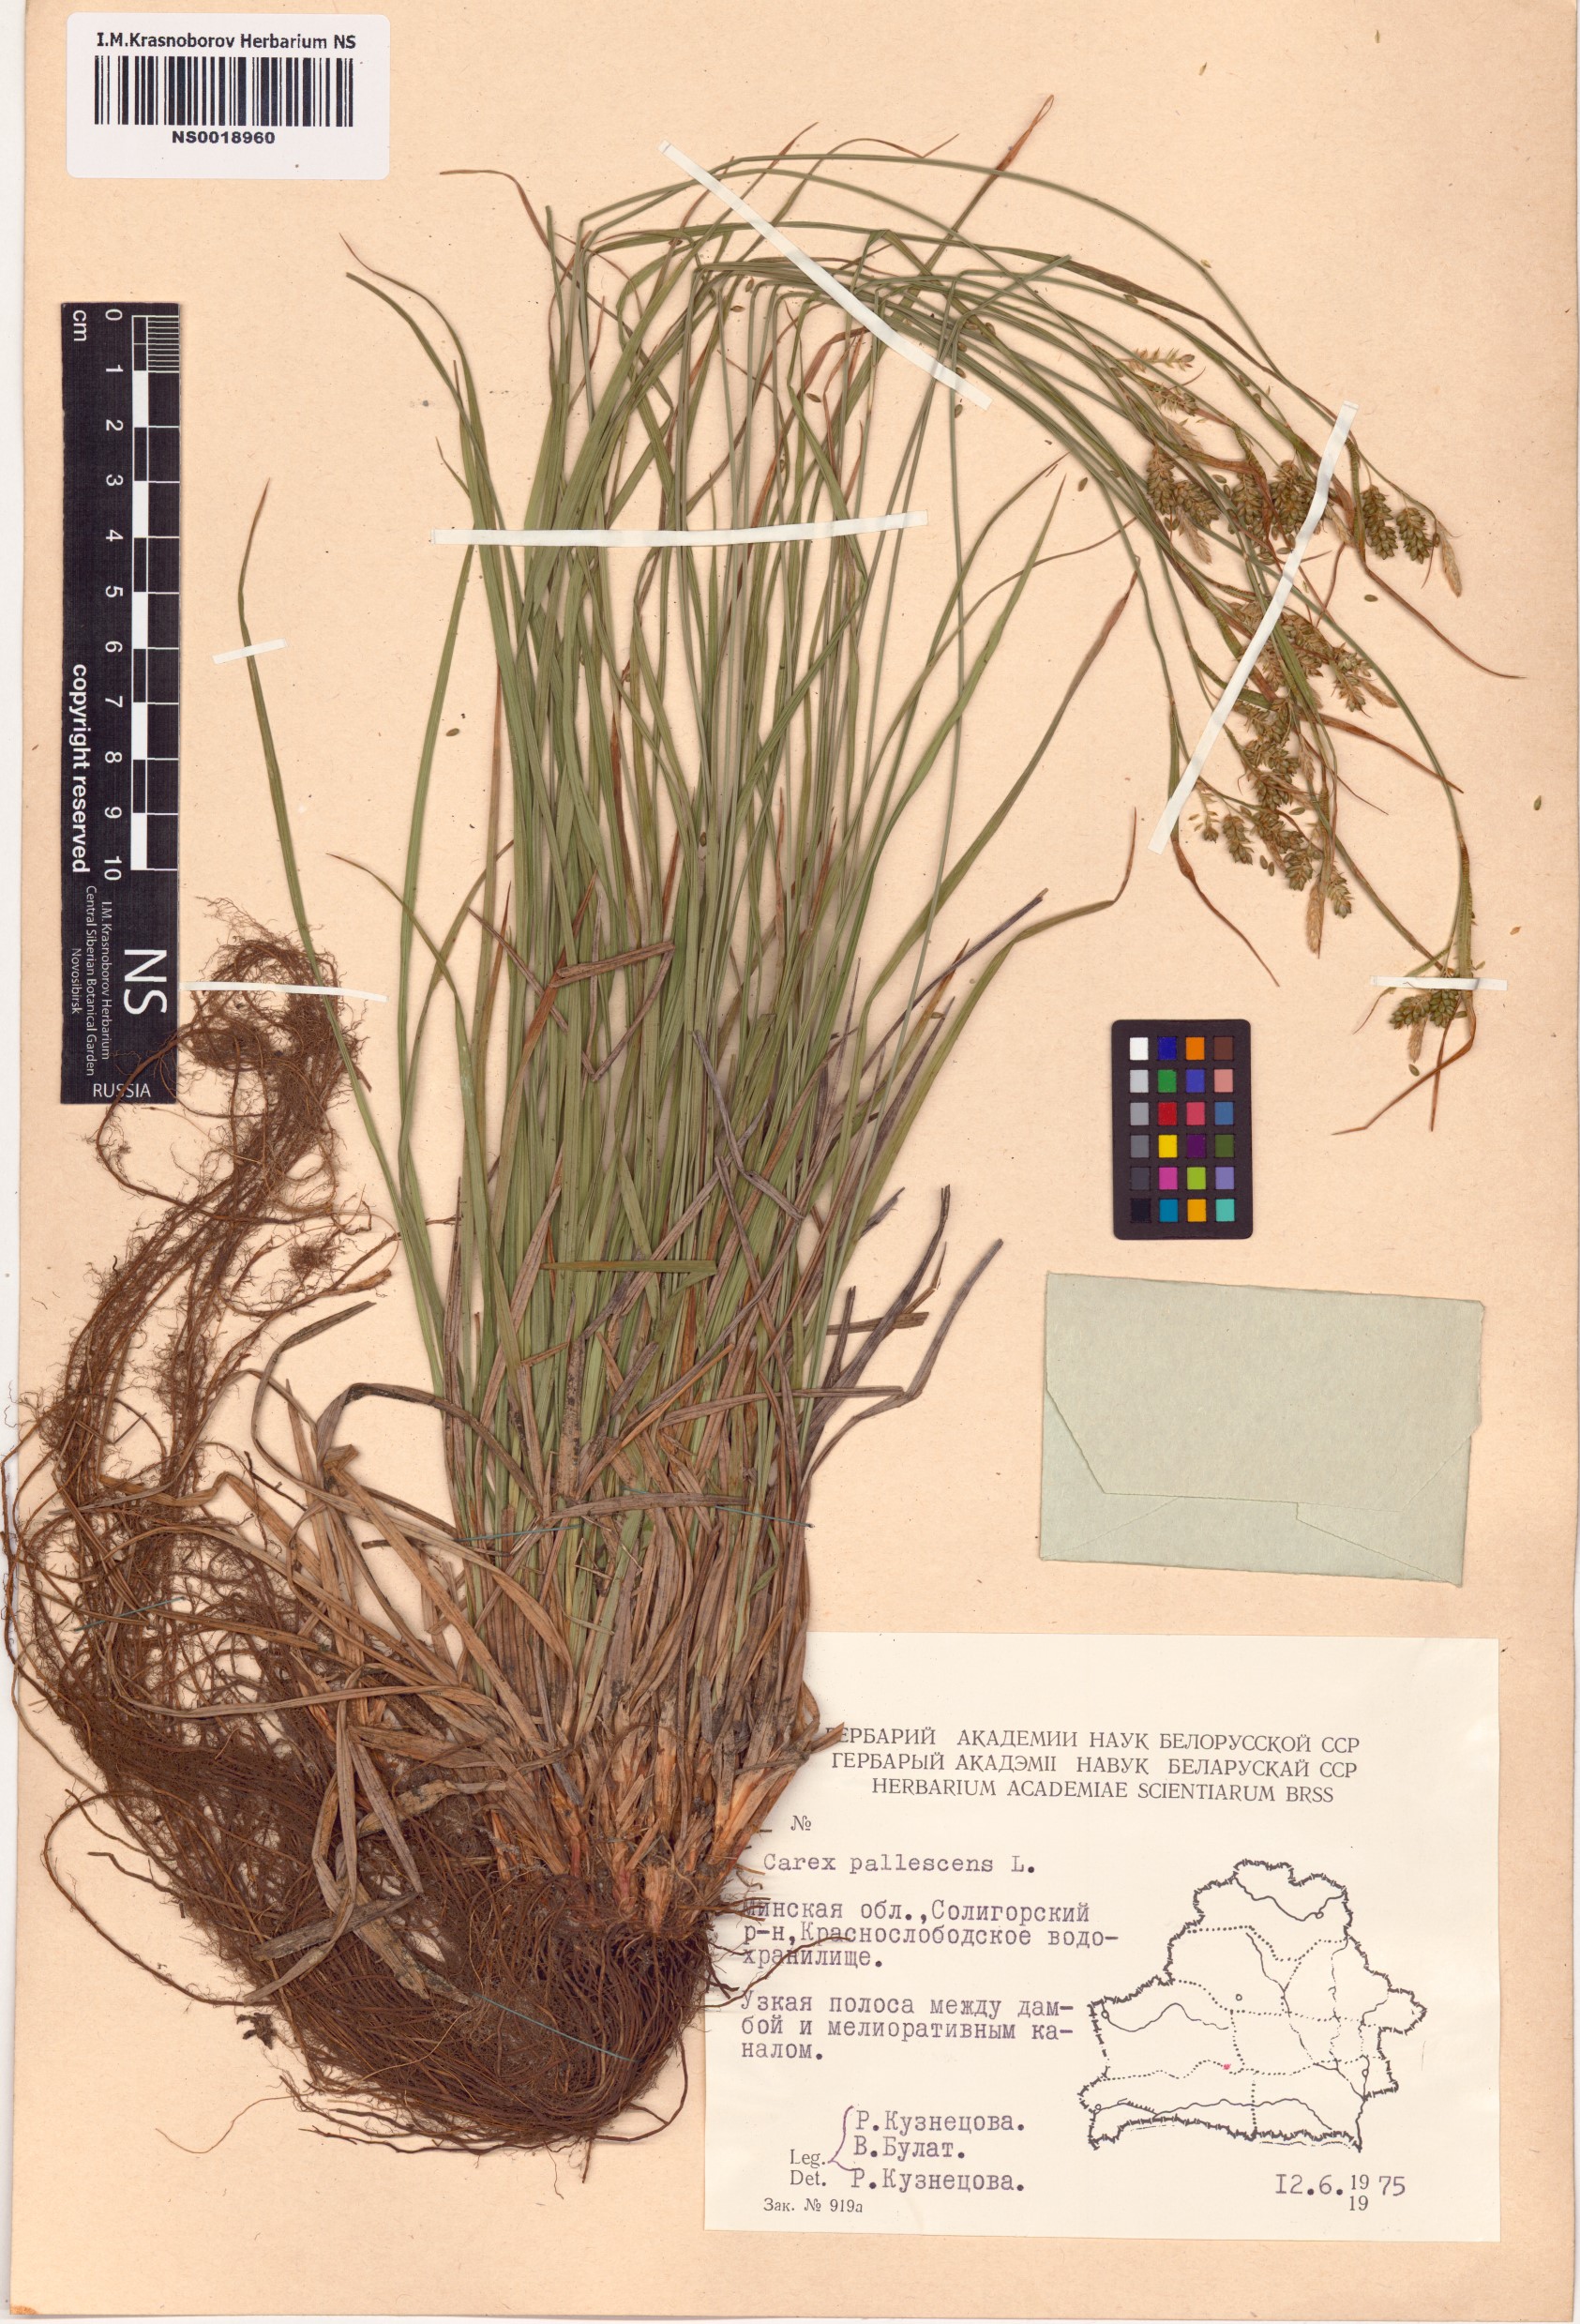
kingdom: Plantae
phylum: Tracheophyta
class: Liliopsida
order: Poales
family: Cyperaceae
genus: Carex
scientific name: Carex pallescens
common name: Pale sedge
